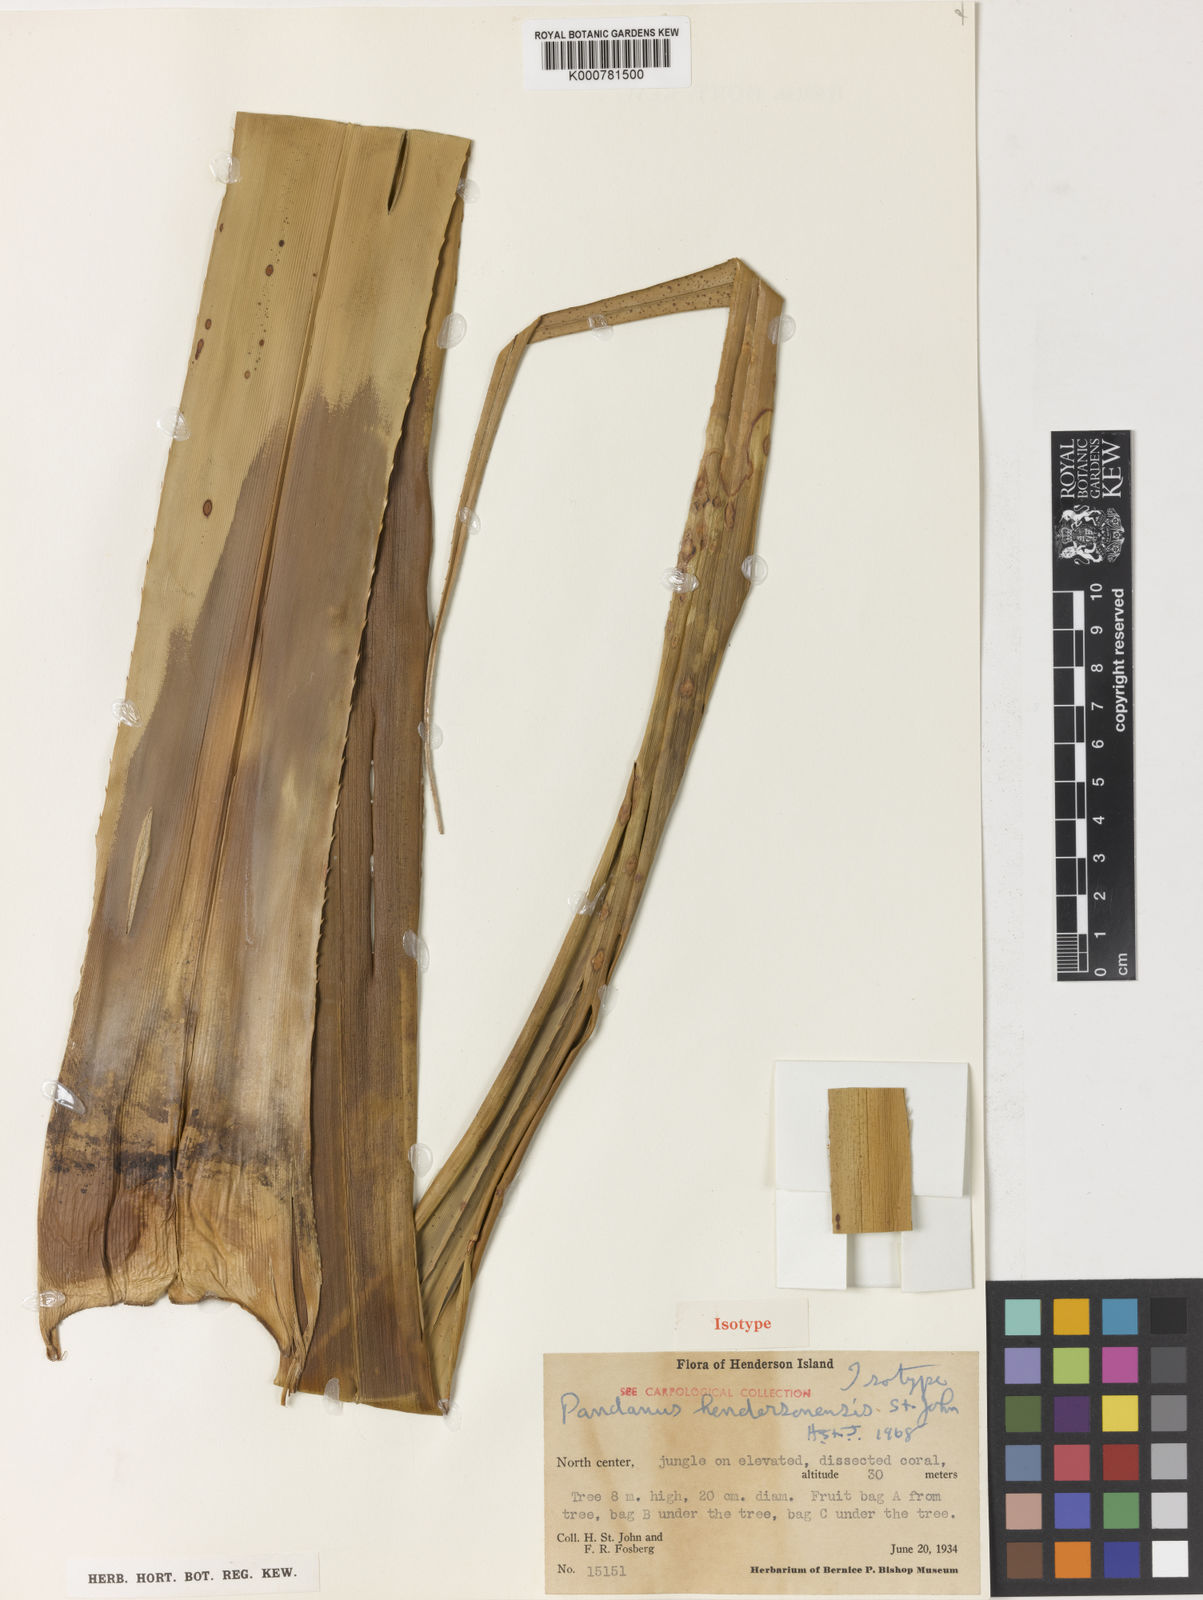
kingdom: Plantae
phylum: Tracheophyta
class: Liliopsida
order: Pandanales
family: Pandanaceae
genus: Pandanus
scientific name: Pandanus odorifer
